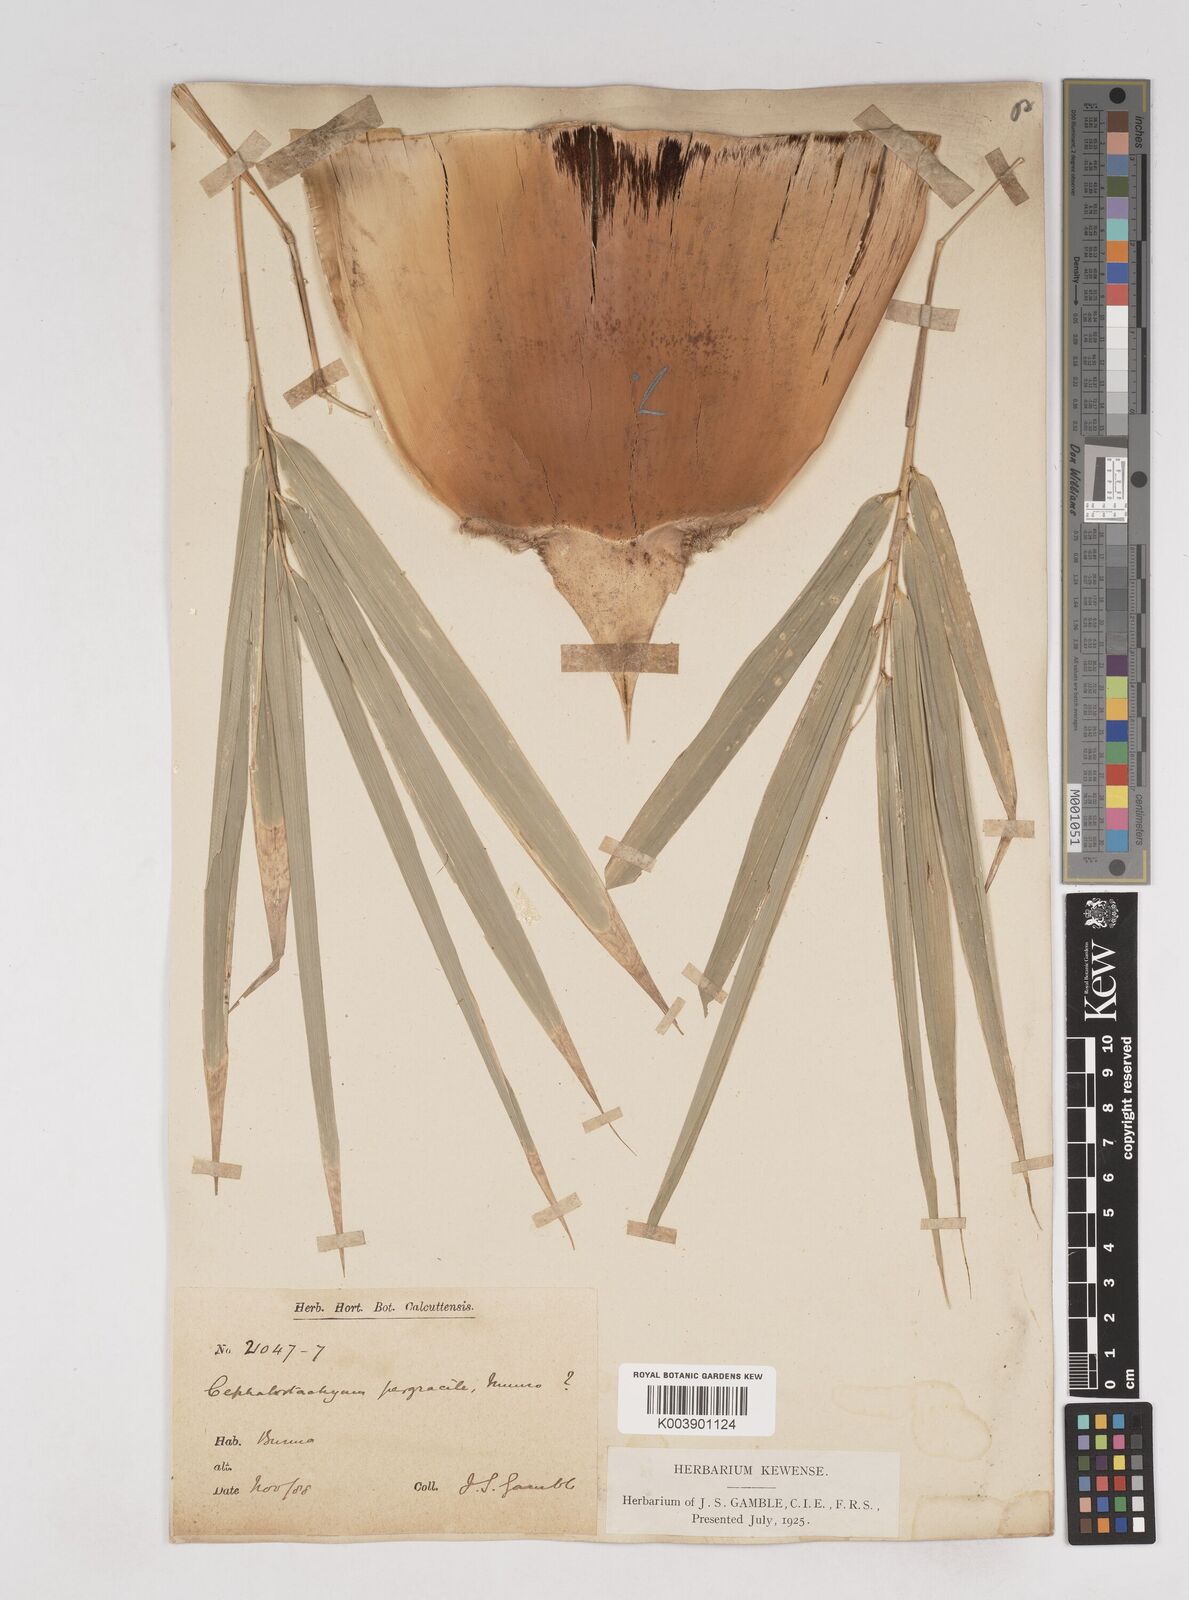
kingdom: Plantae
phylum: Tracheophyta
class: Liliopsida
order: Poales
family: Poaceae
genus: Schizostachyum
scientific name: Schizostachyum pergracile
